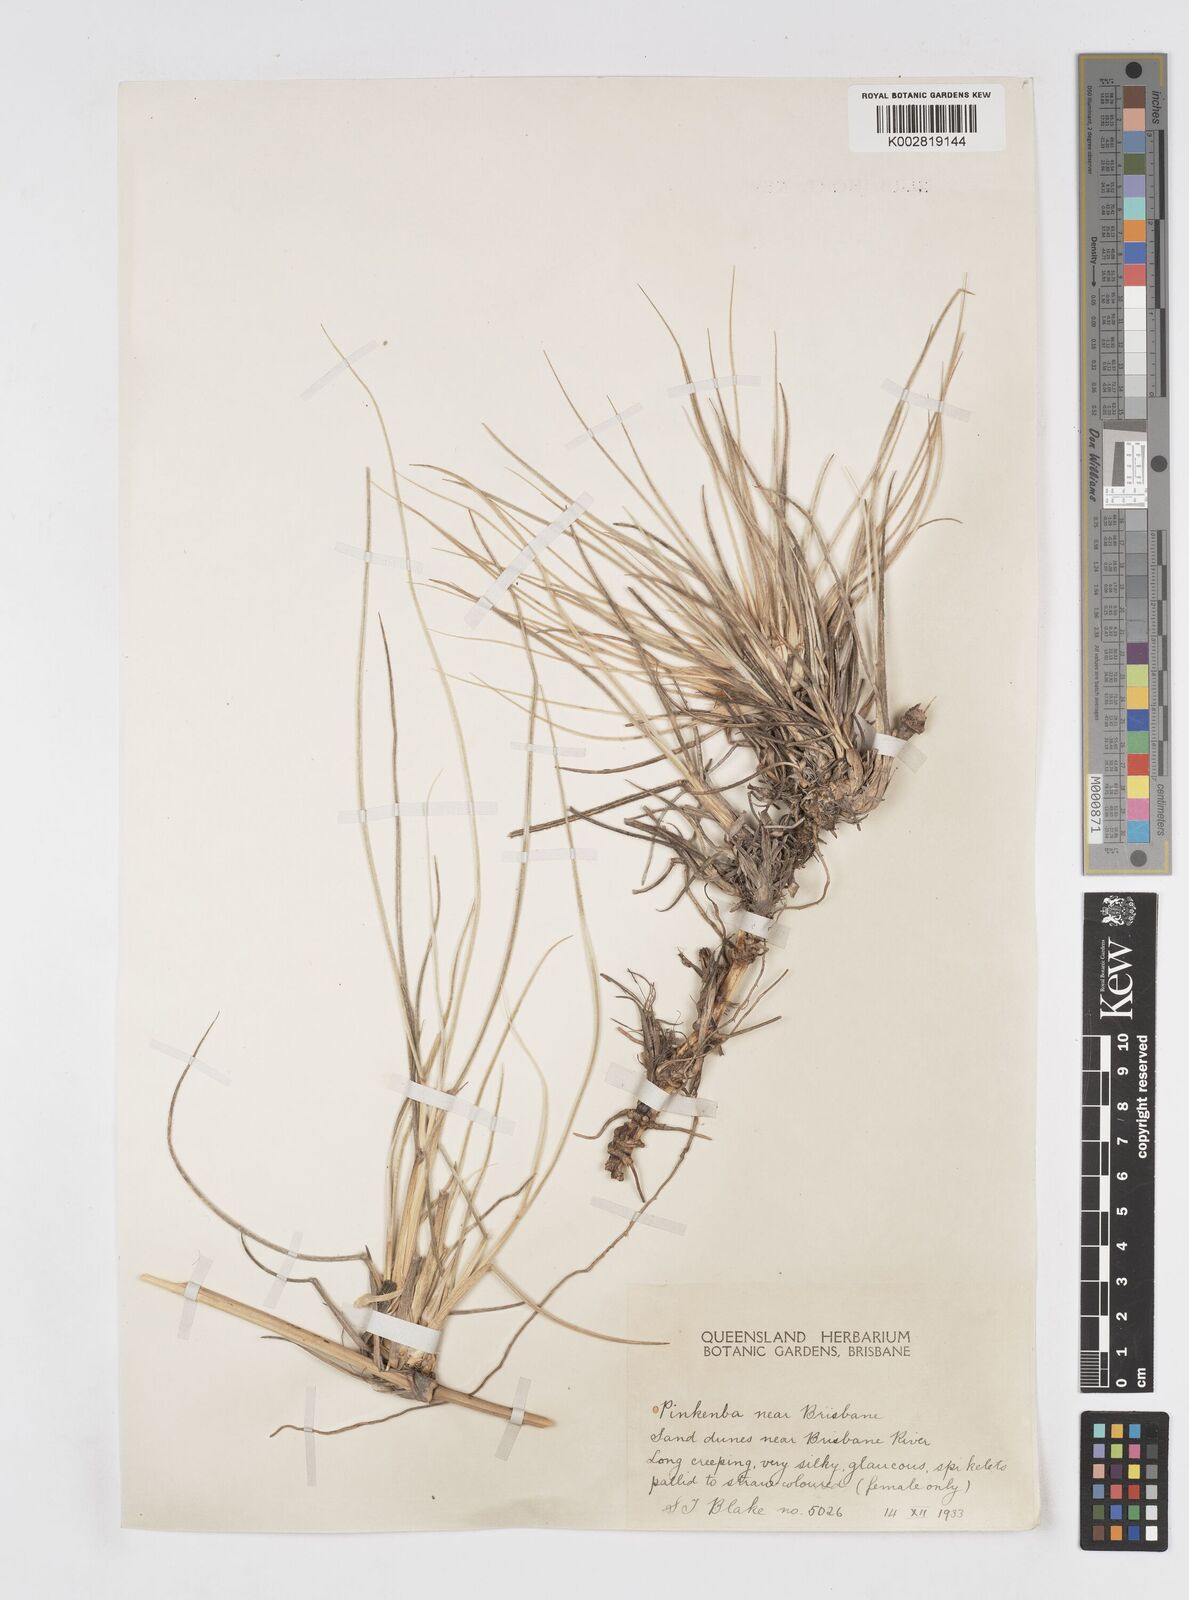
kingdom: Plantae
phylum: Tracheophyta
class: Liliopsida
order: Poales
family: Poaceae
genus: Spinifex
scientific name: Spinifex hirsutus
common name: Hairy spinifex
